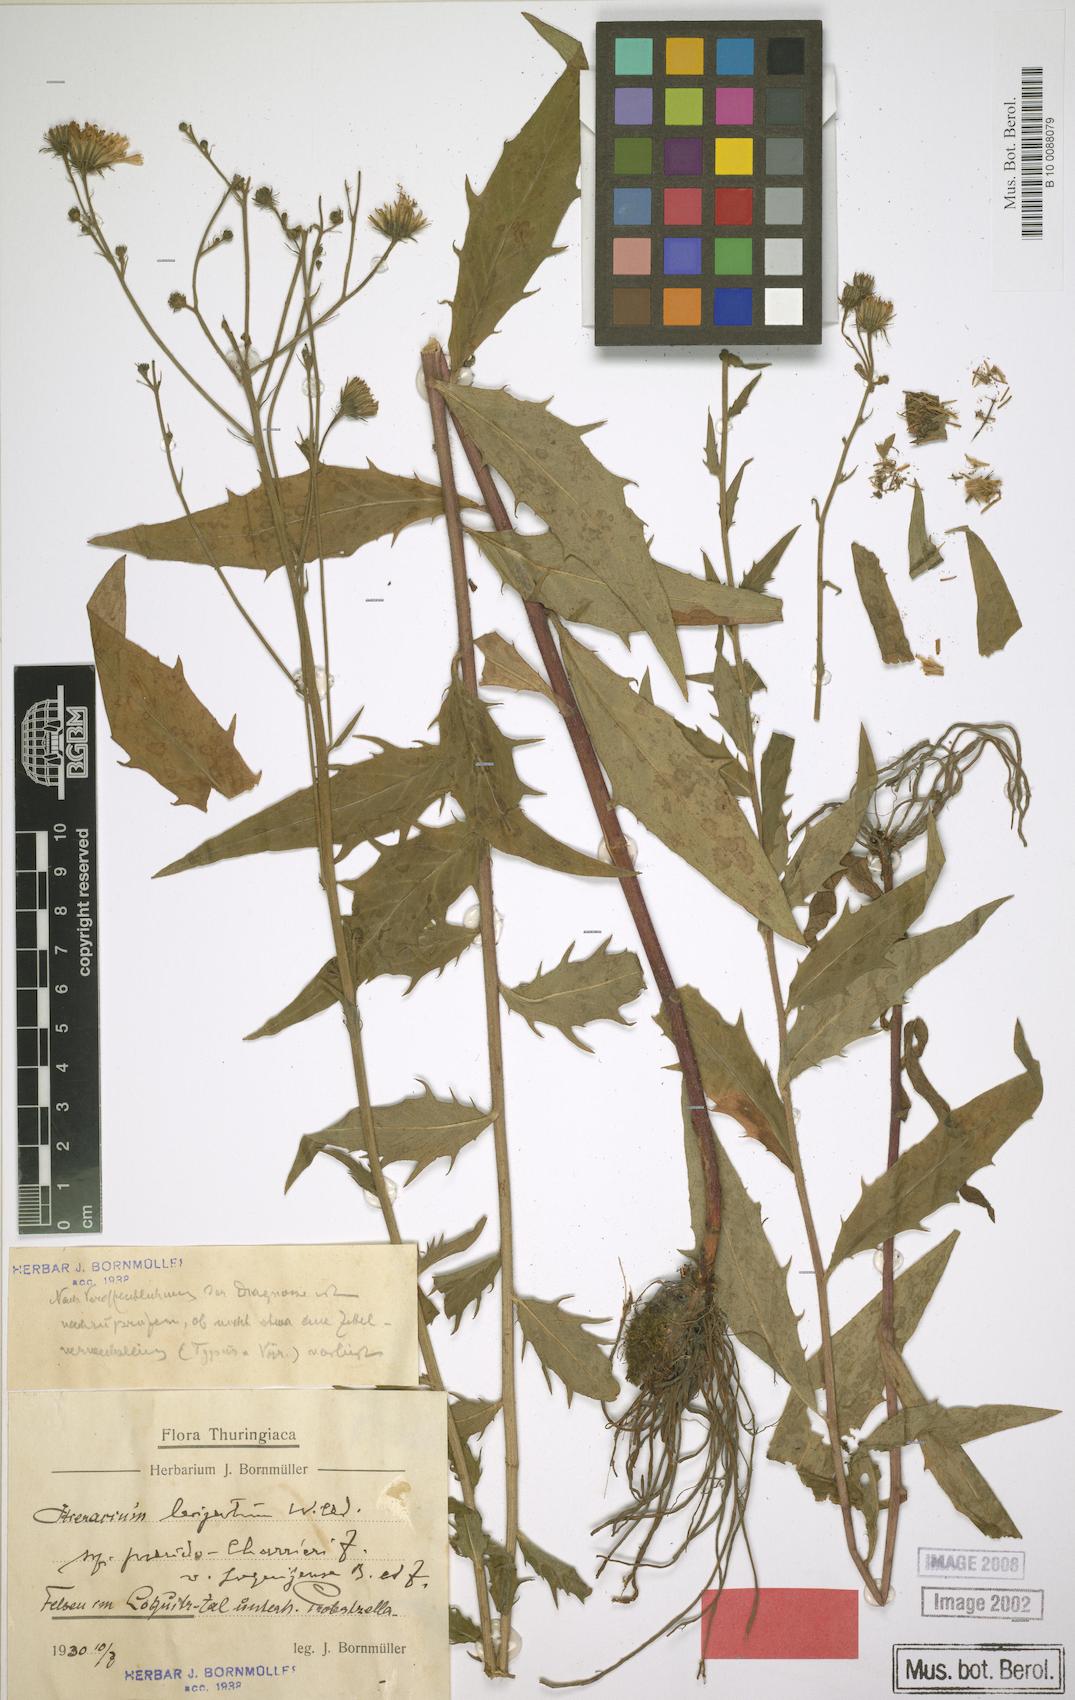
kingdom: Plantae
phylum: Tracheophyta
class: Magnoliopsida
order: Asterales
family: Asteraceae
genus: Hieracium
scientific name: Hieracium laevigatum
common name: Smooth hawkweed
